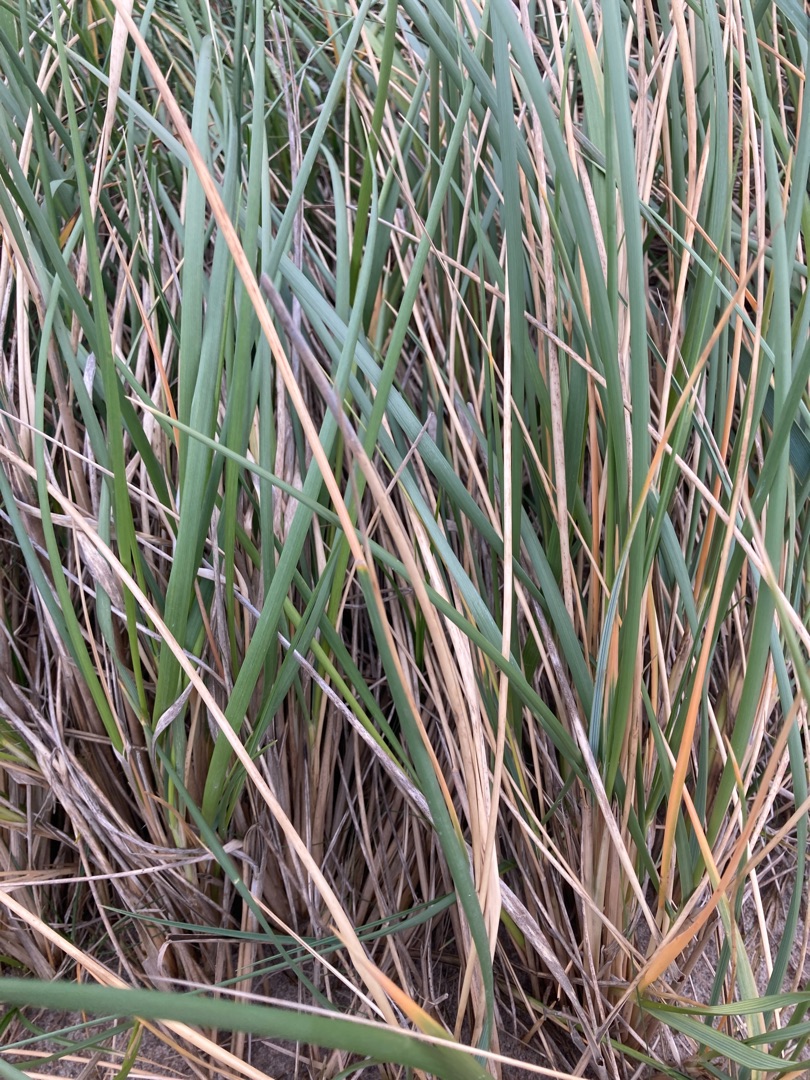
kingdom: Plantae
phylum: Tracheophyta
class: Liliopsida
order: Poales
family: Poaceae
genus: Leymus
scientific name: Leymus arenarius
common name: Marehalm
